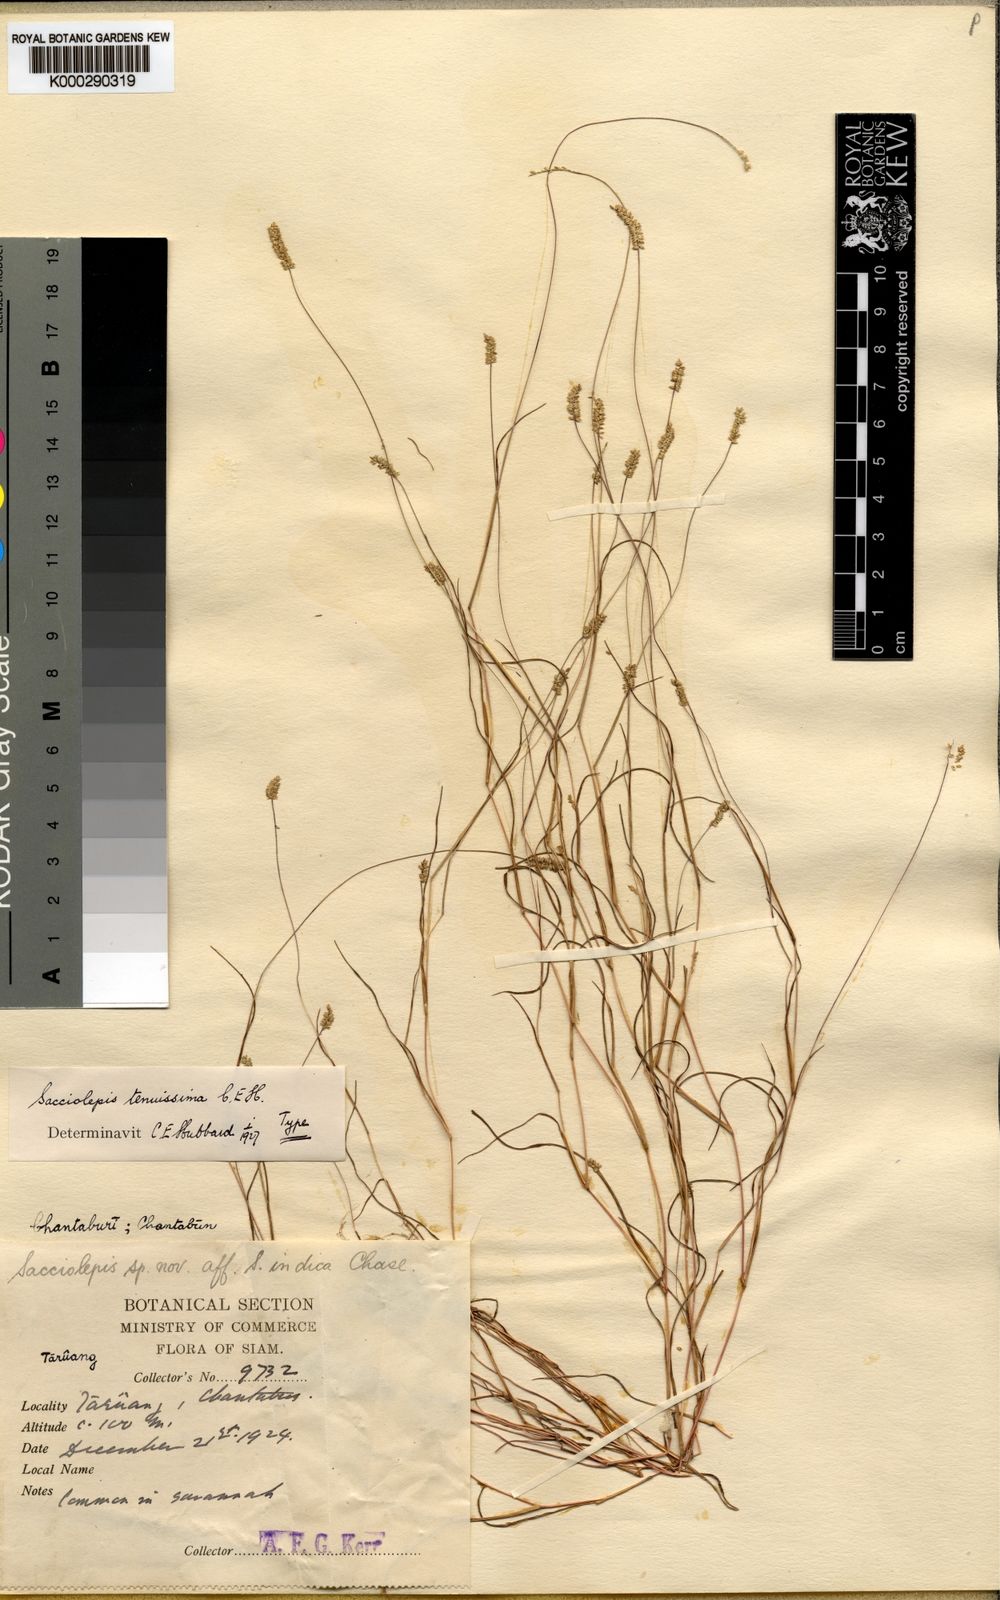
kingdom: Plantae
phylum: Tracheophyta
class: Liliopsida
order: Poales
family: Poaceae
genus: Sacciolepis
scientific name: Sacciolepis tenuissima
